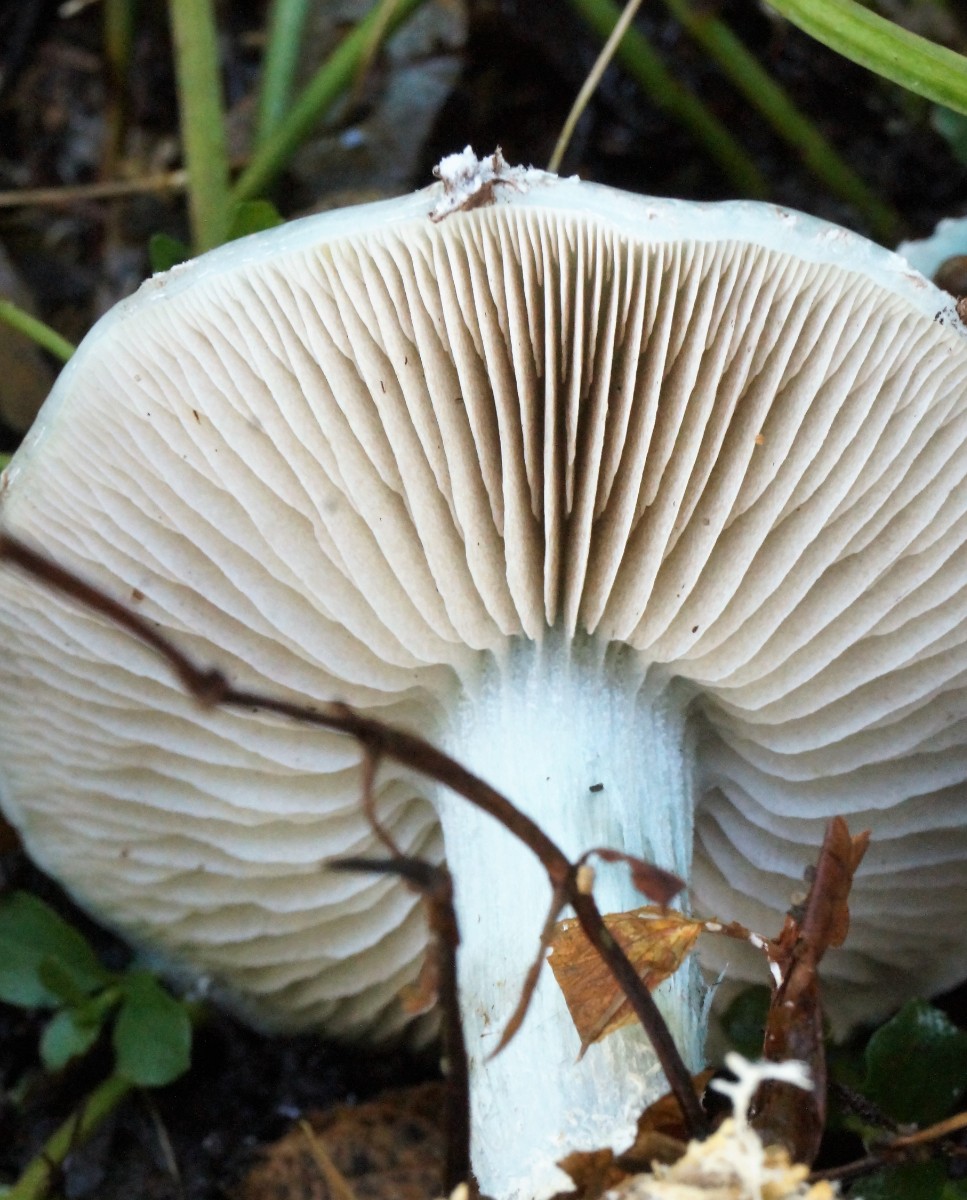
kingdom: Fungi
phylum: Basidiomycota
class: Agaricomycetes
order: Agaricales
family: Strophariaceae
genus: Stropharia
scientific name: Stropharia cyanea
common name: blågrøn bredblad
